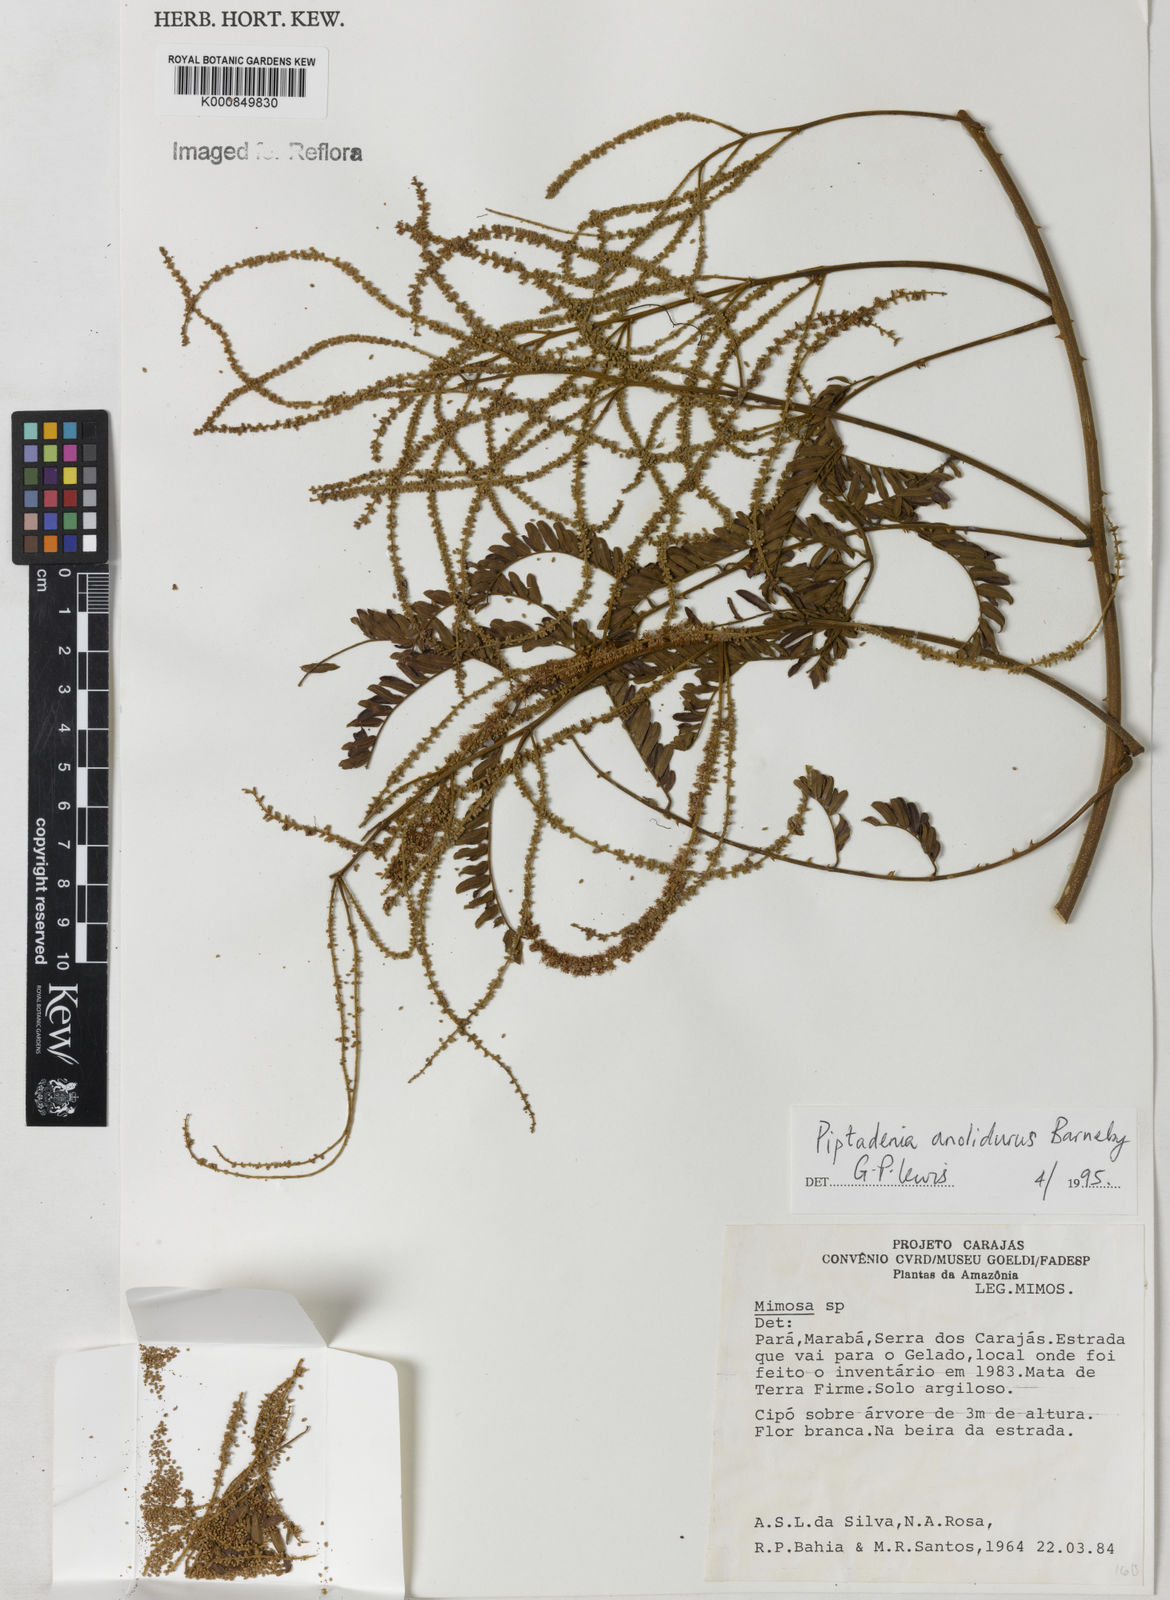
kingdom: Plantae
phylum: Tracheophyta
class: Magnoliopsida
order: Fabales
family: Fabaceae
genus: Piptadenia
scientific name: Piptadenia anolidurus
